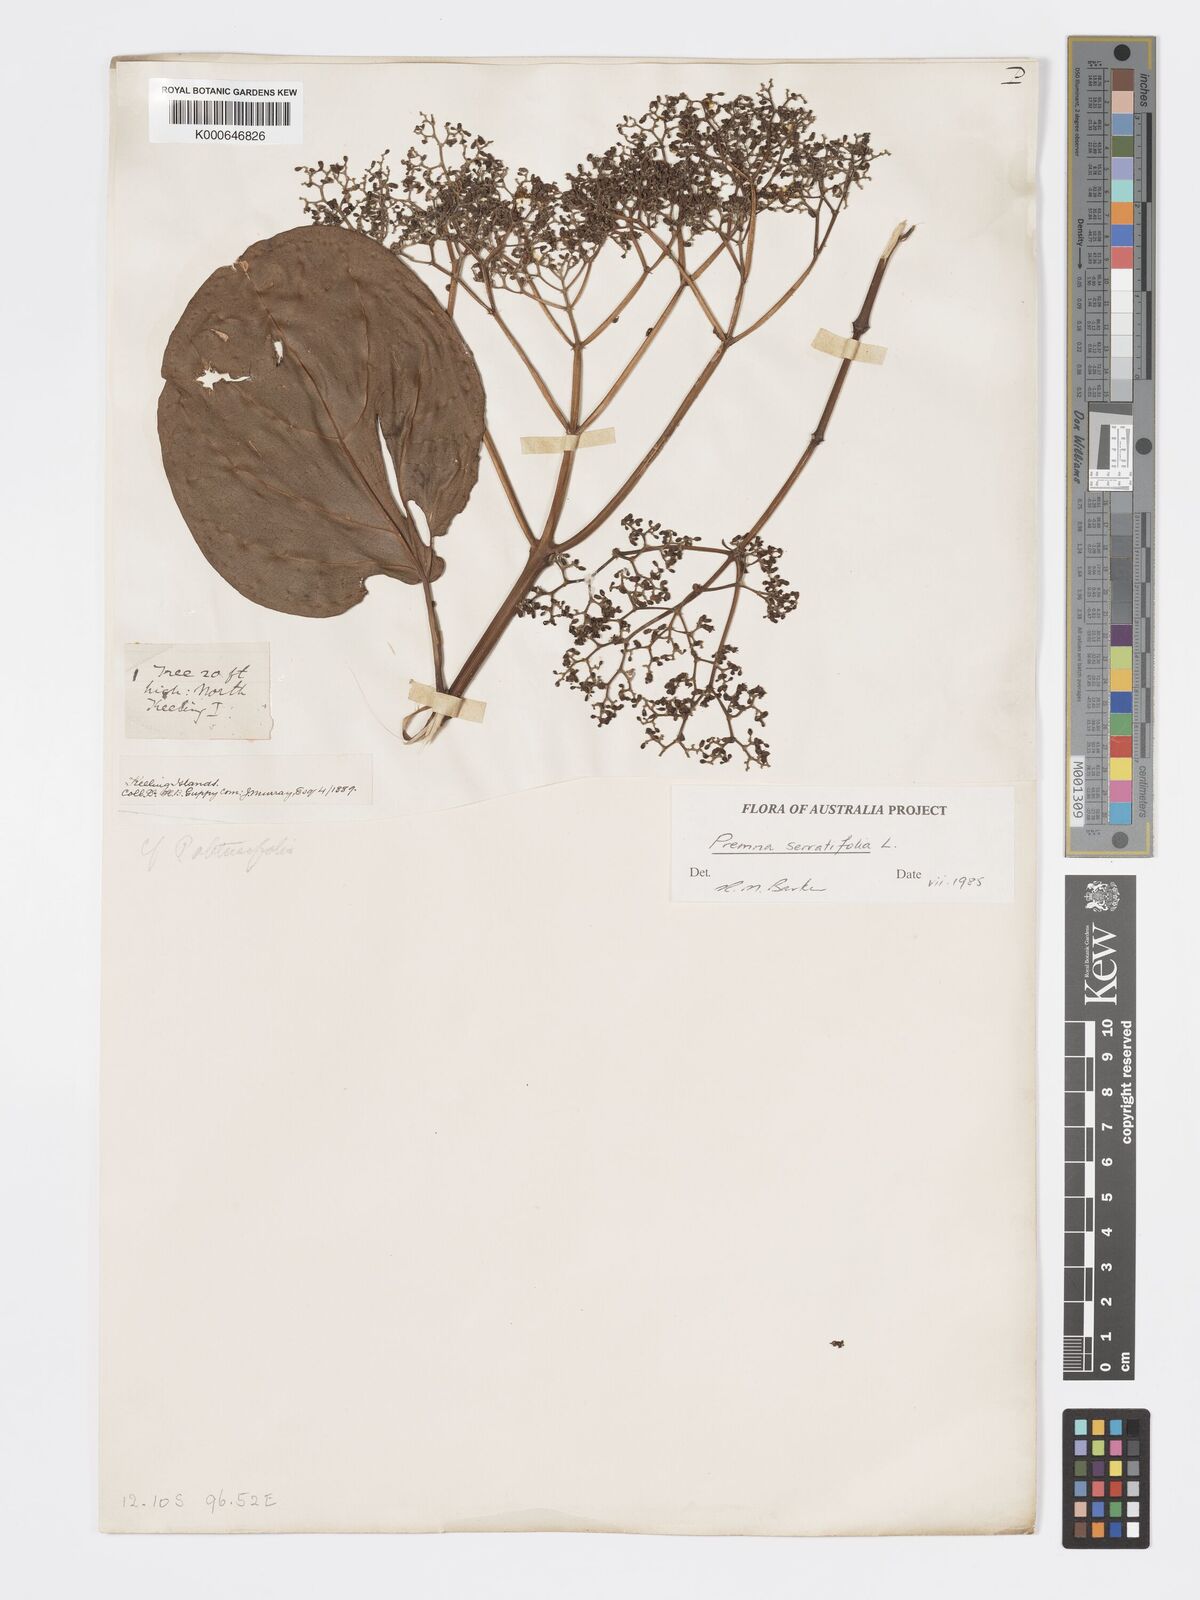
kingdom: Plantae
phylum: Tracheophyta
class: Magnoliopsida
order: Lamiales
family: Lamiaceae
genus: Premna
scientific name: Premna serratifolia
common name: Bastard guelder
